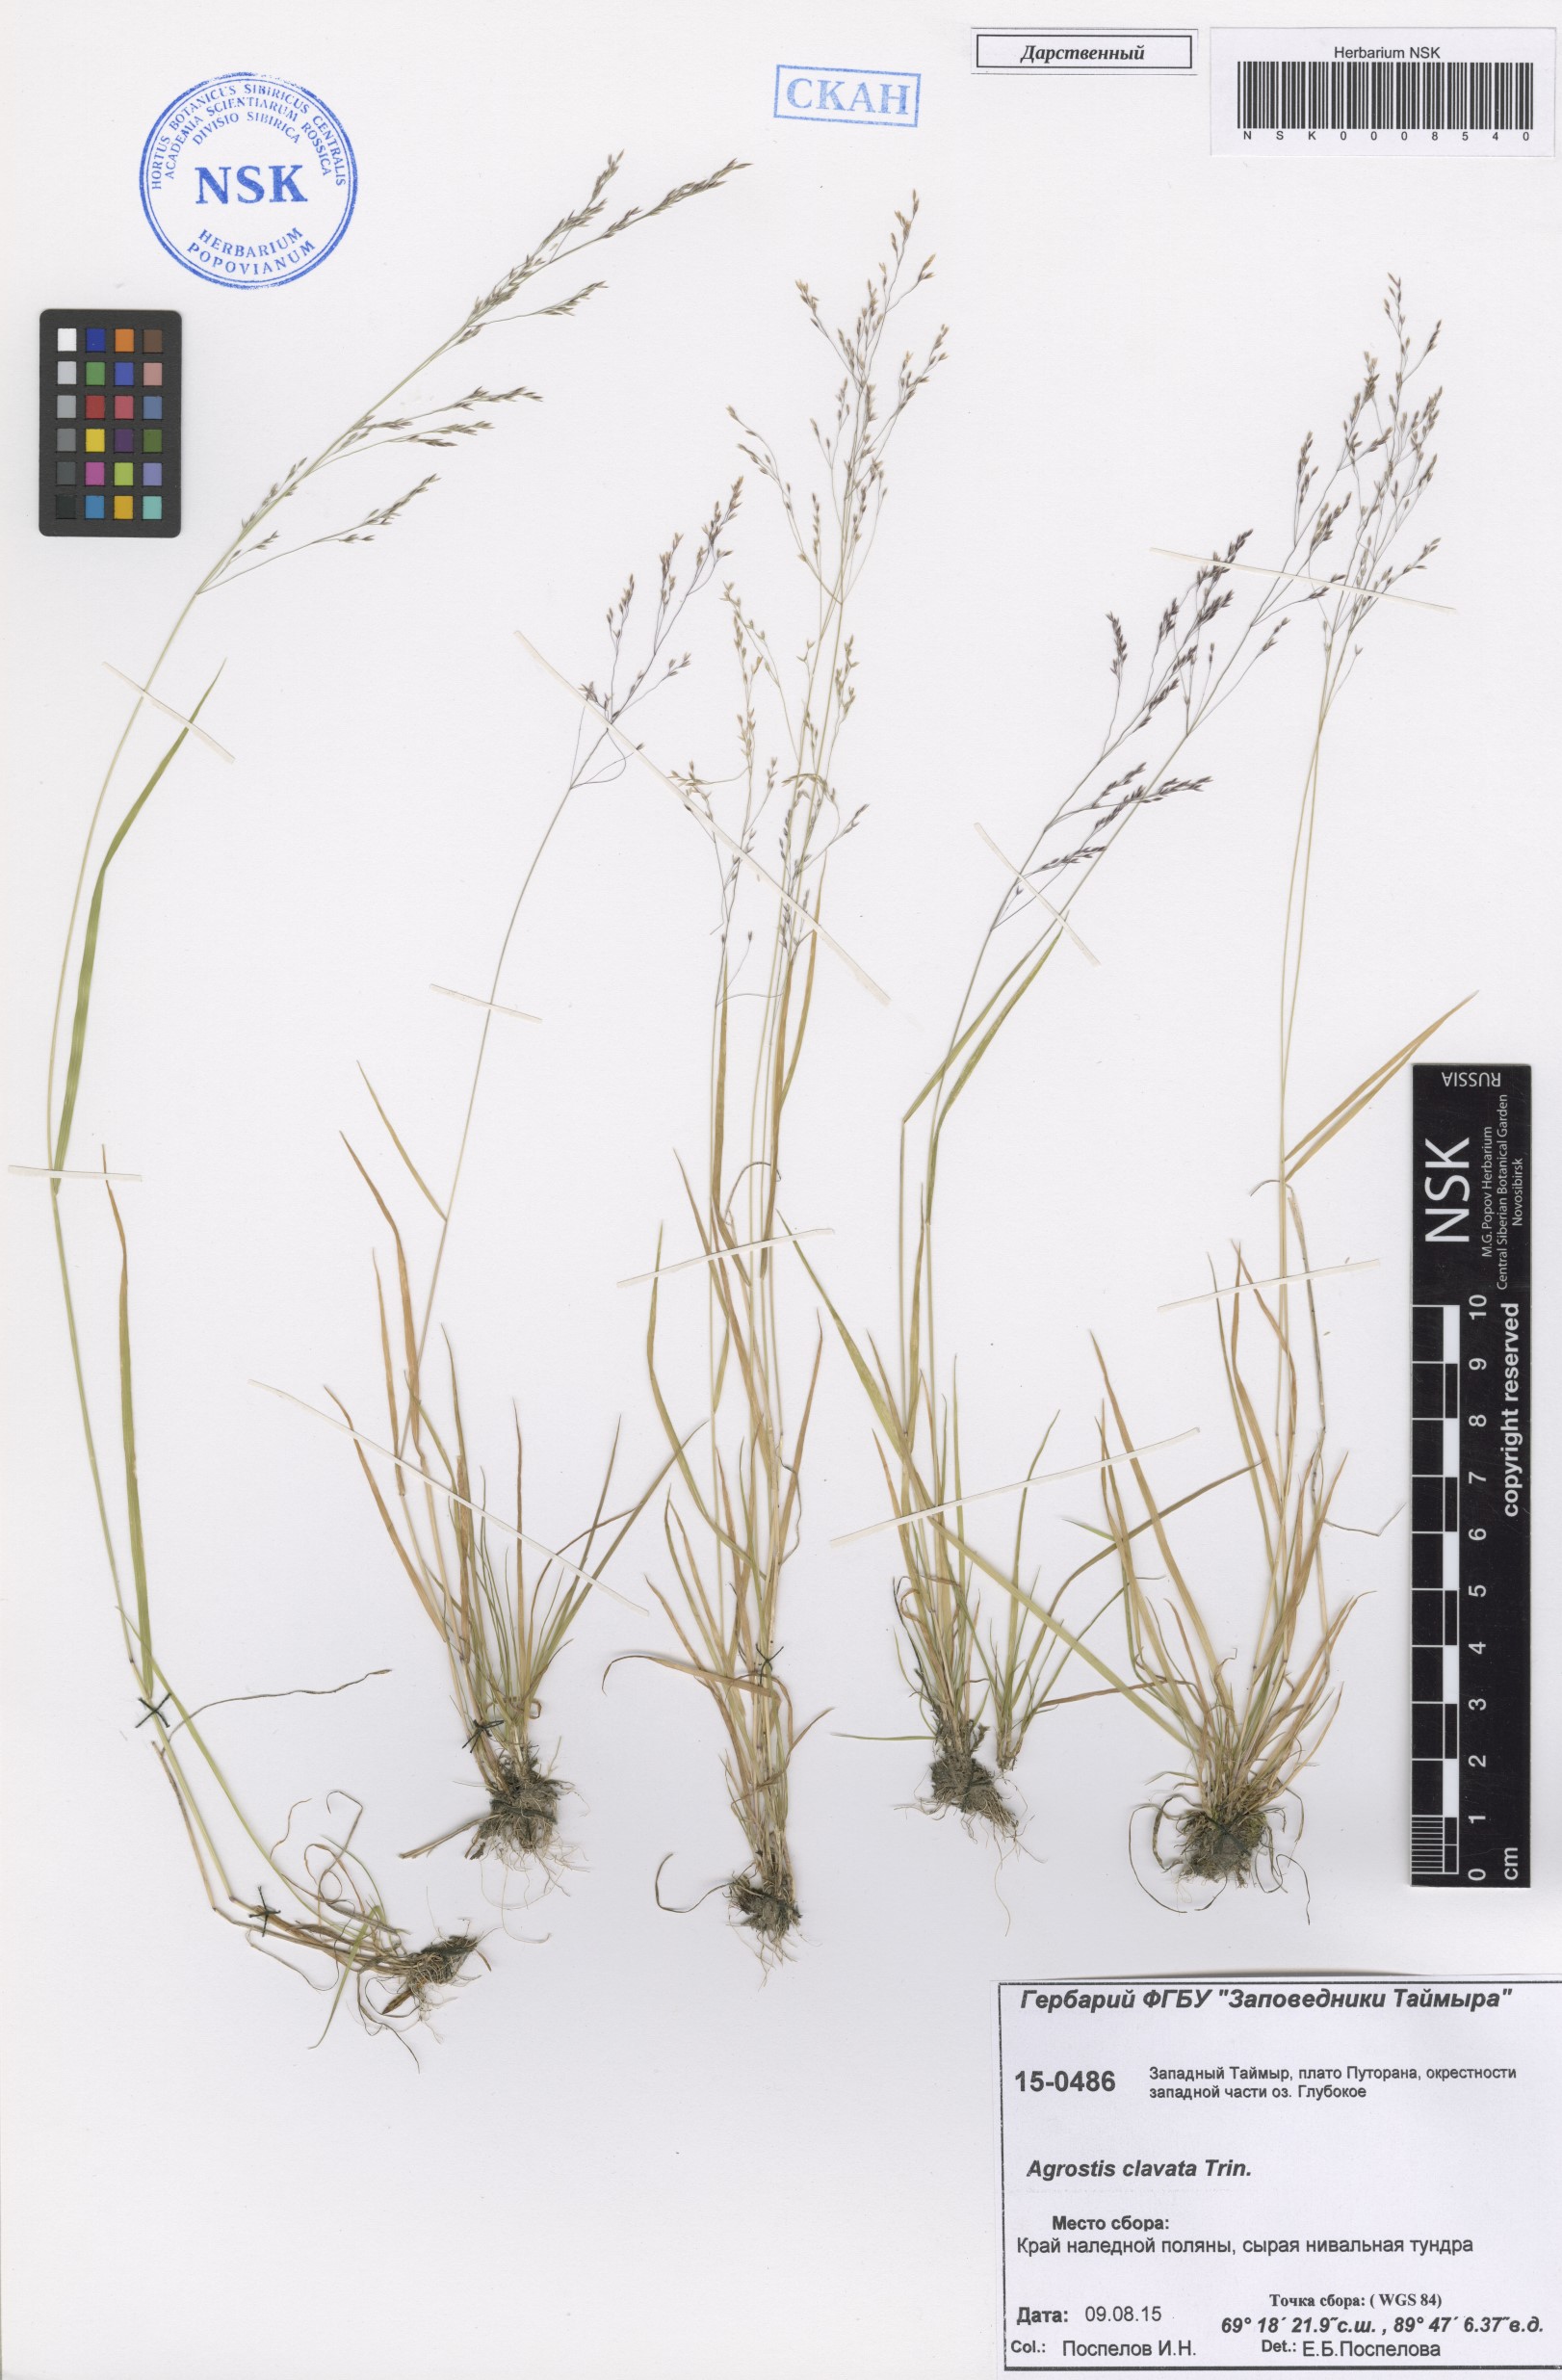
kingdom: Plantae
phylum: Tracheophyta
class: Liliopsida
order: Poales
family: Poaceae
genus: Agrostis
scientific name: Agrostis clavata
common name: Clavate bent
